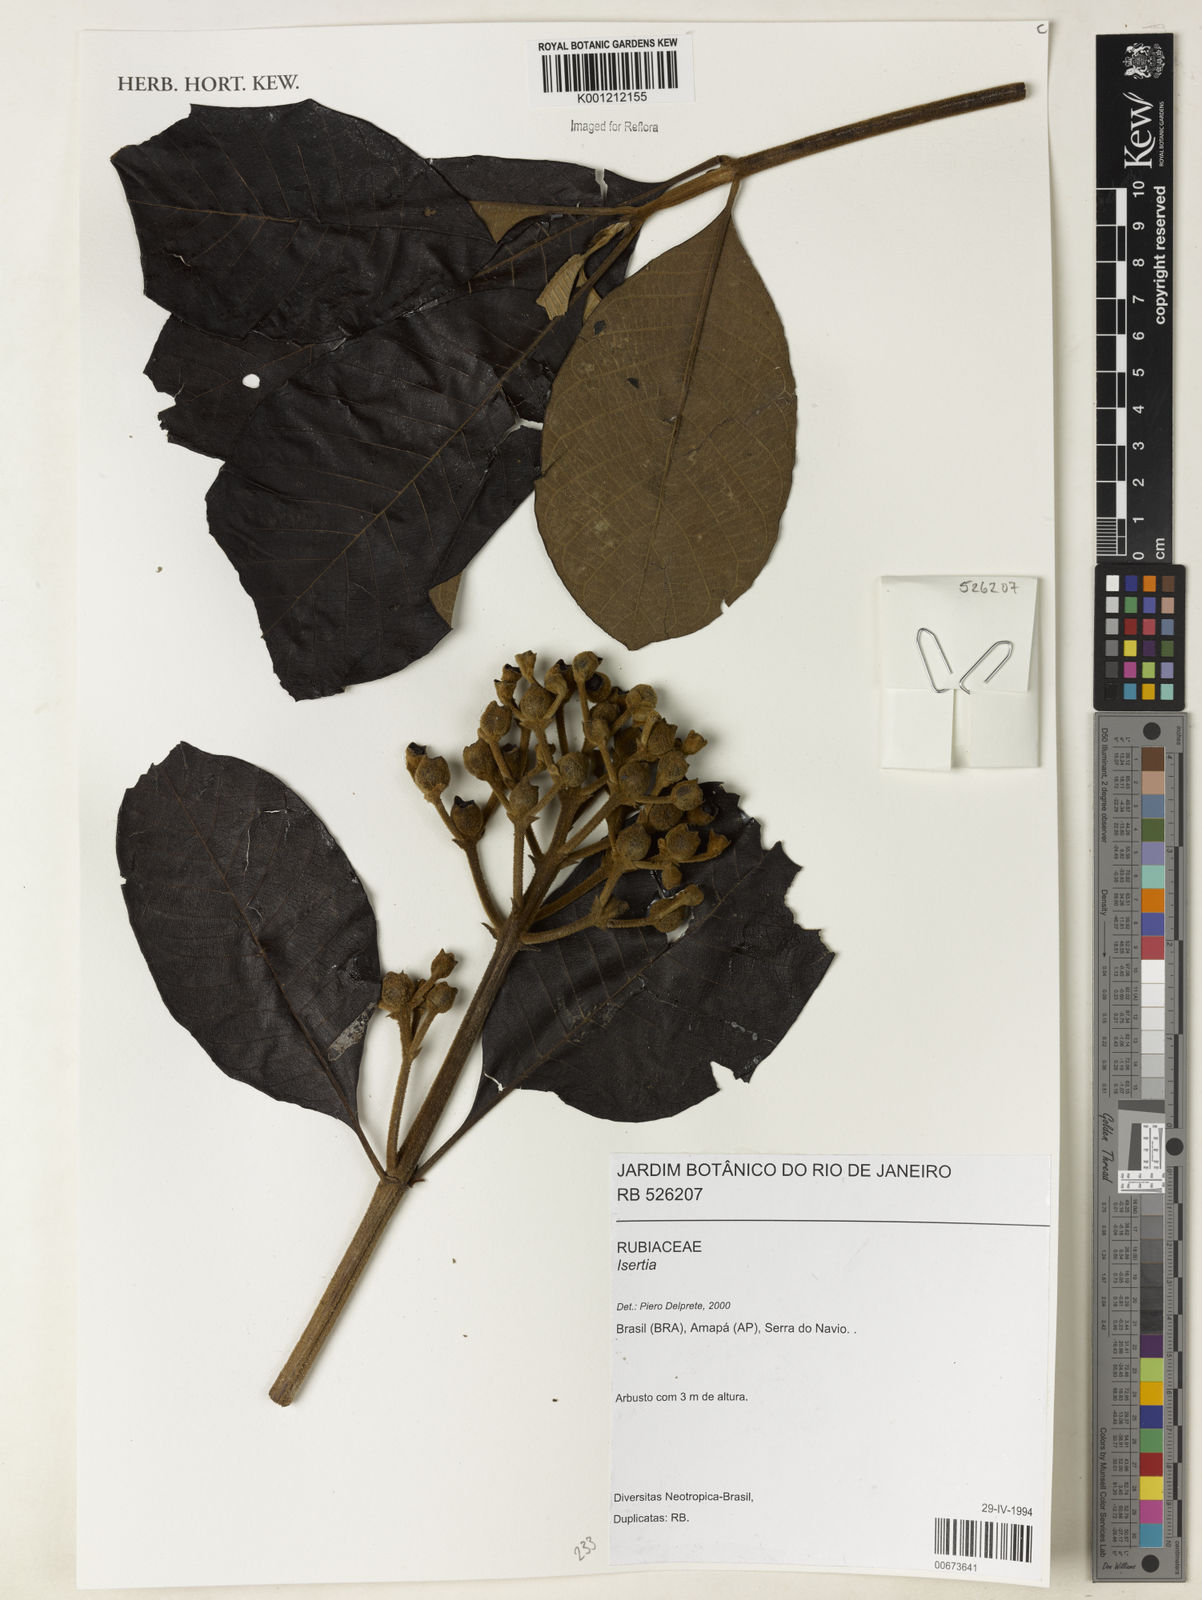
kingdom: Plantae
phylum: Tracheophyta
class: Magnoliopsida
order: Gentianales
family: Rubiaceae
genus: Isertia
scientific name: Isertia
